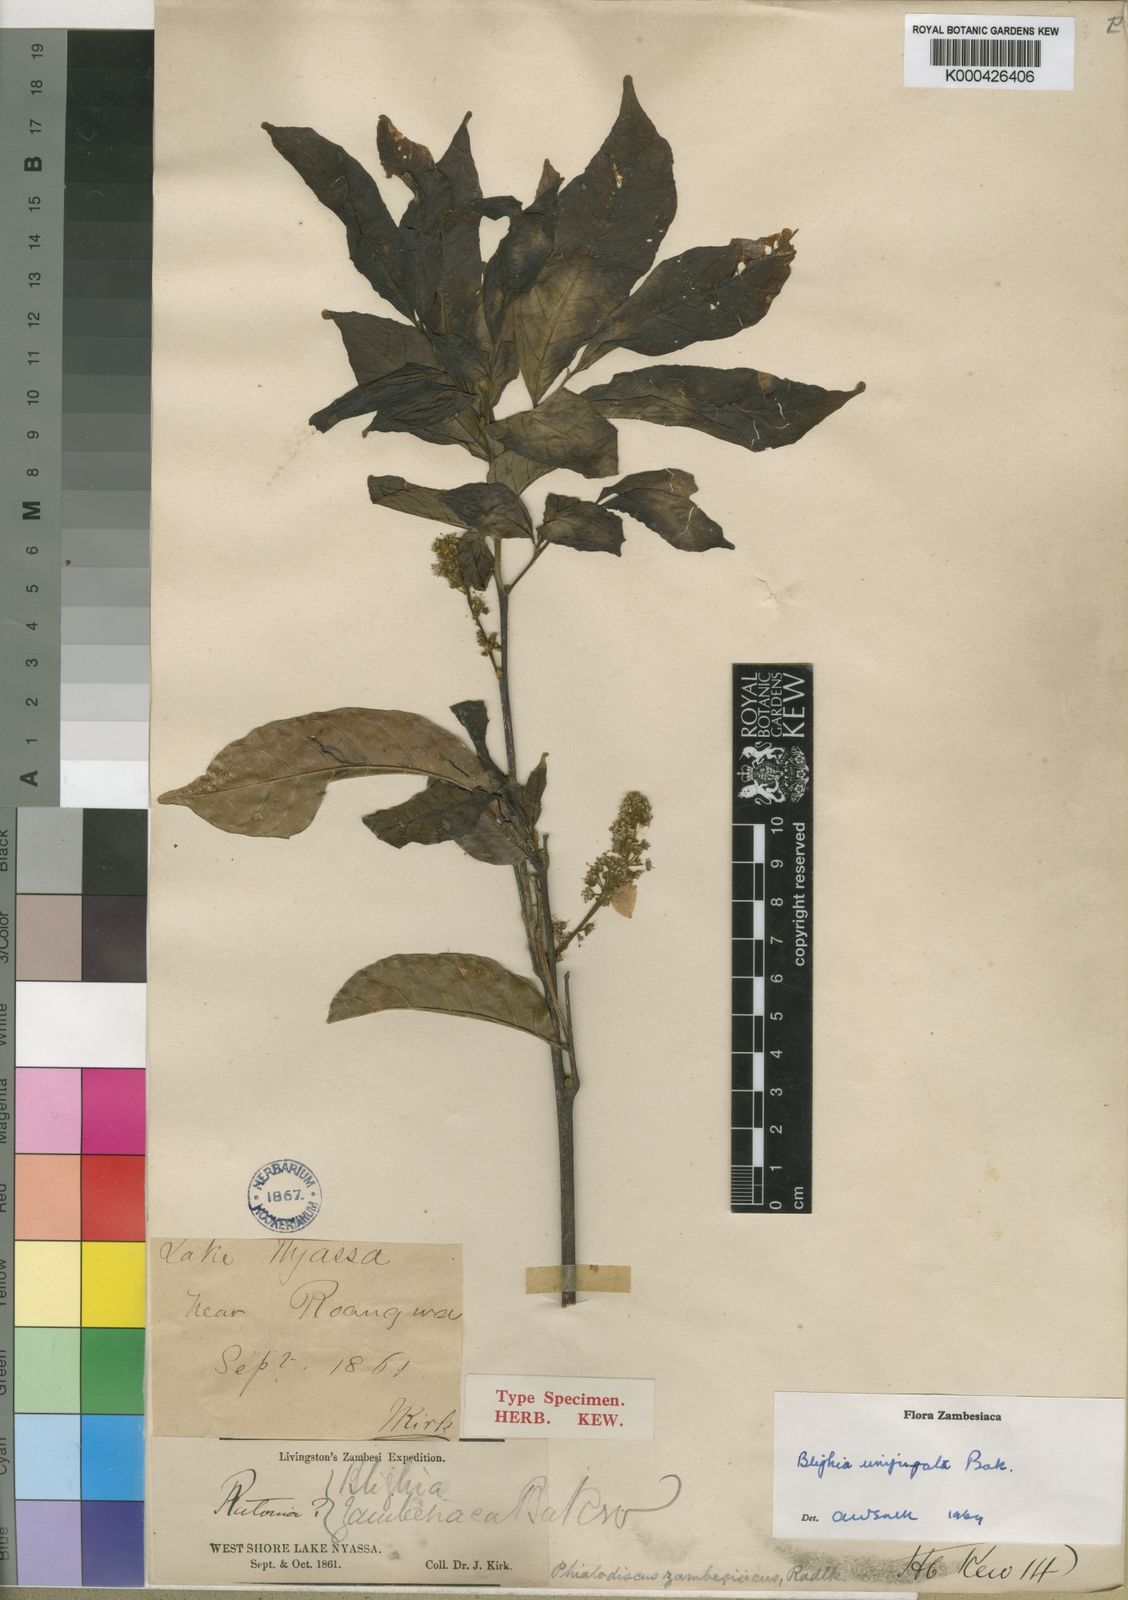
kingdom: Plantae
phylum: Tracheophyta
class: Magnoliopsida
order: Sapindales
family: Sapindaceae
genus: Blighia
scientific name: Blighia unijugata
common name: Triangle tops
